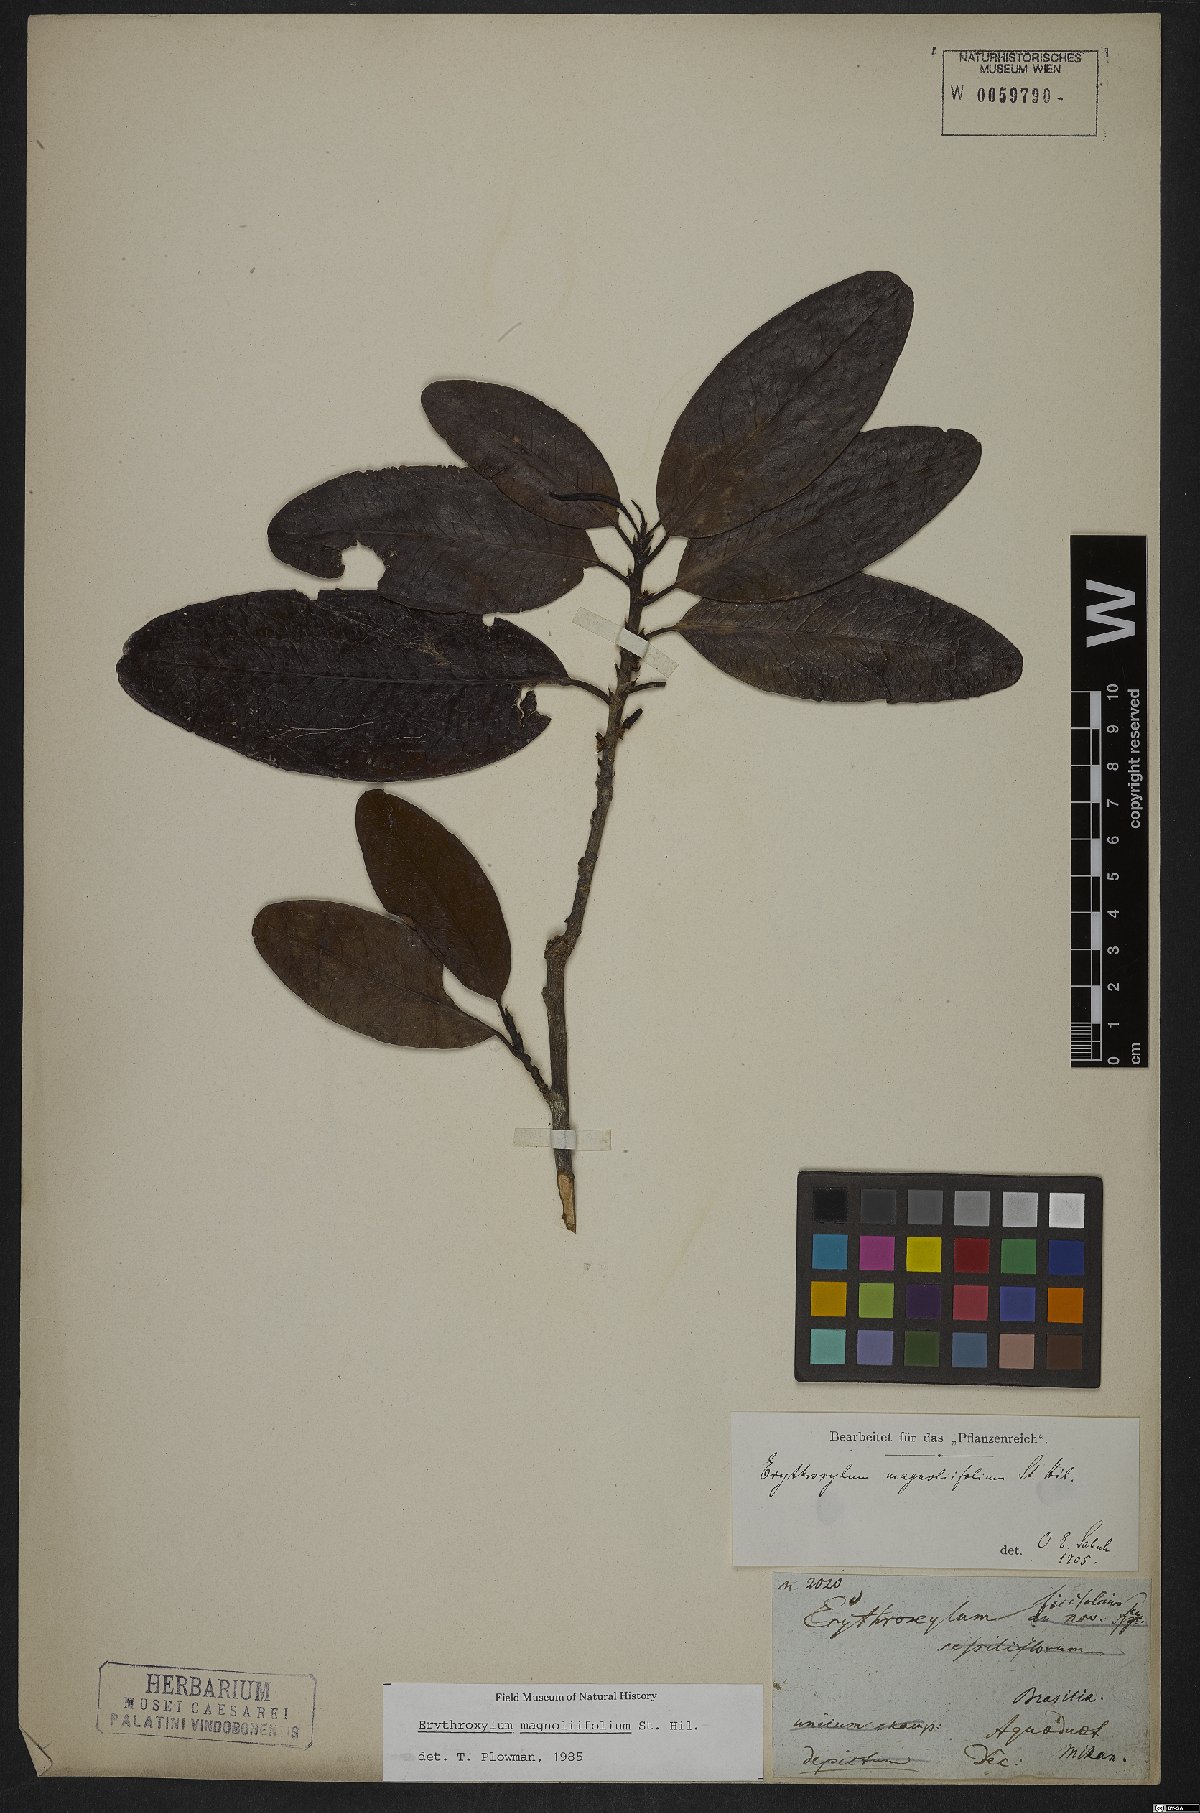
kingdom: Plantae
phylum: Tracheophyta
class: Magnoliopsida
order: Malpighiales
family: Erythroxylaceae
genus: Erythroxylum
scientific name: Erythroxylum magnoliifolium
